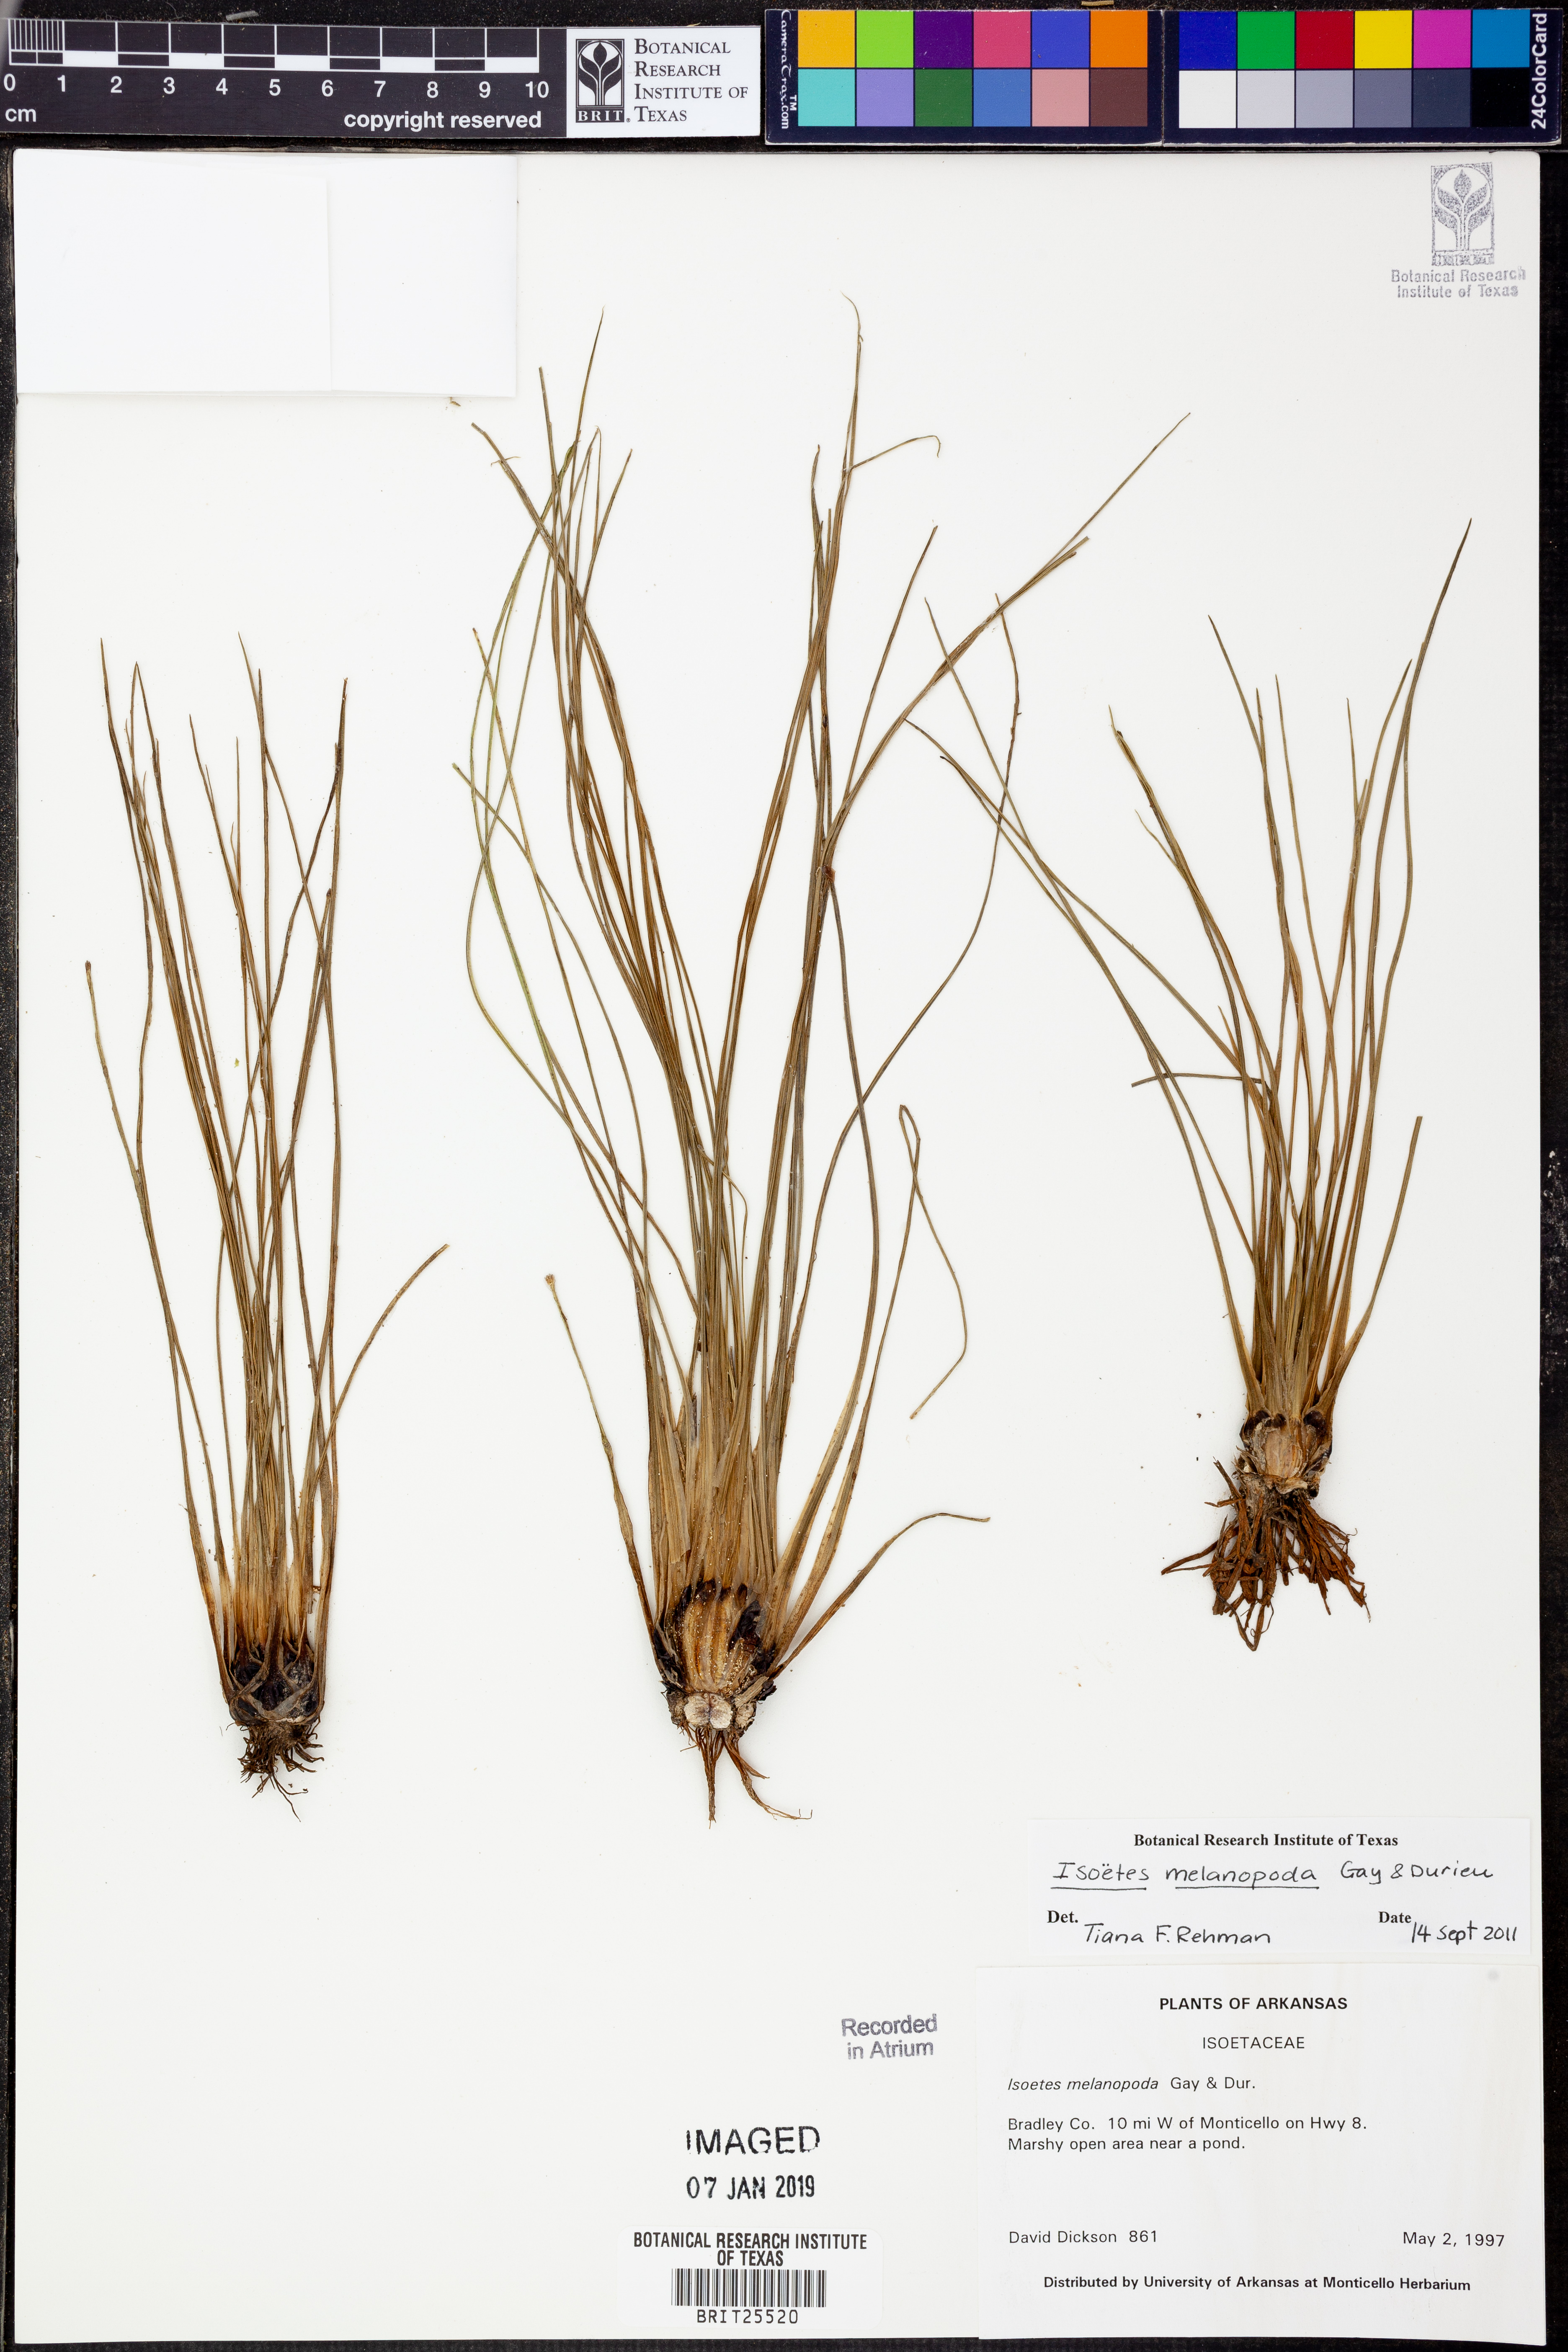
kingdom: Plantae
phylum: Tracheophyta
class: Lycopodiopsida
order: Isoetales
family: Isoetaceae
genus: Isoetes
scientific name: Isoetes melanopoda
